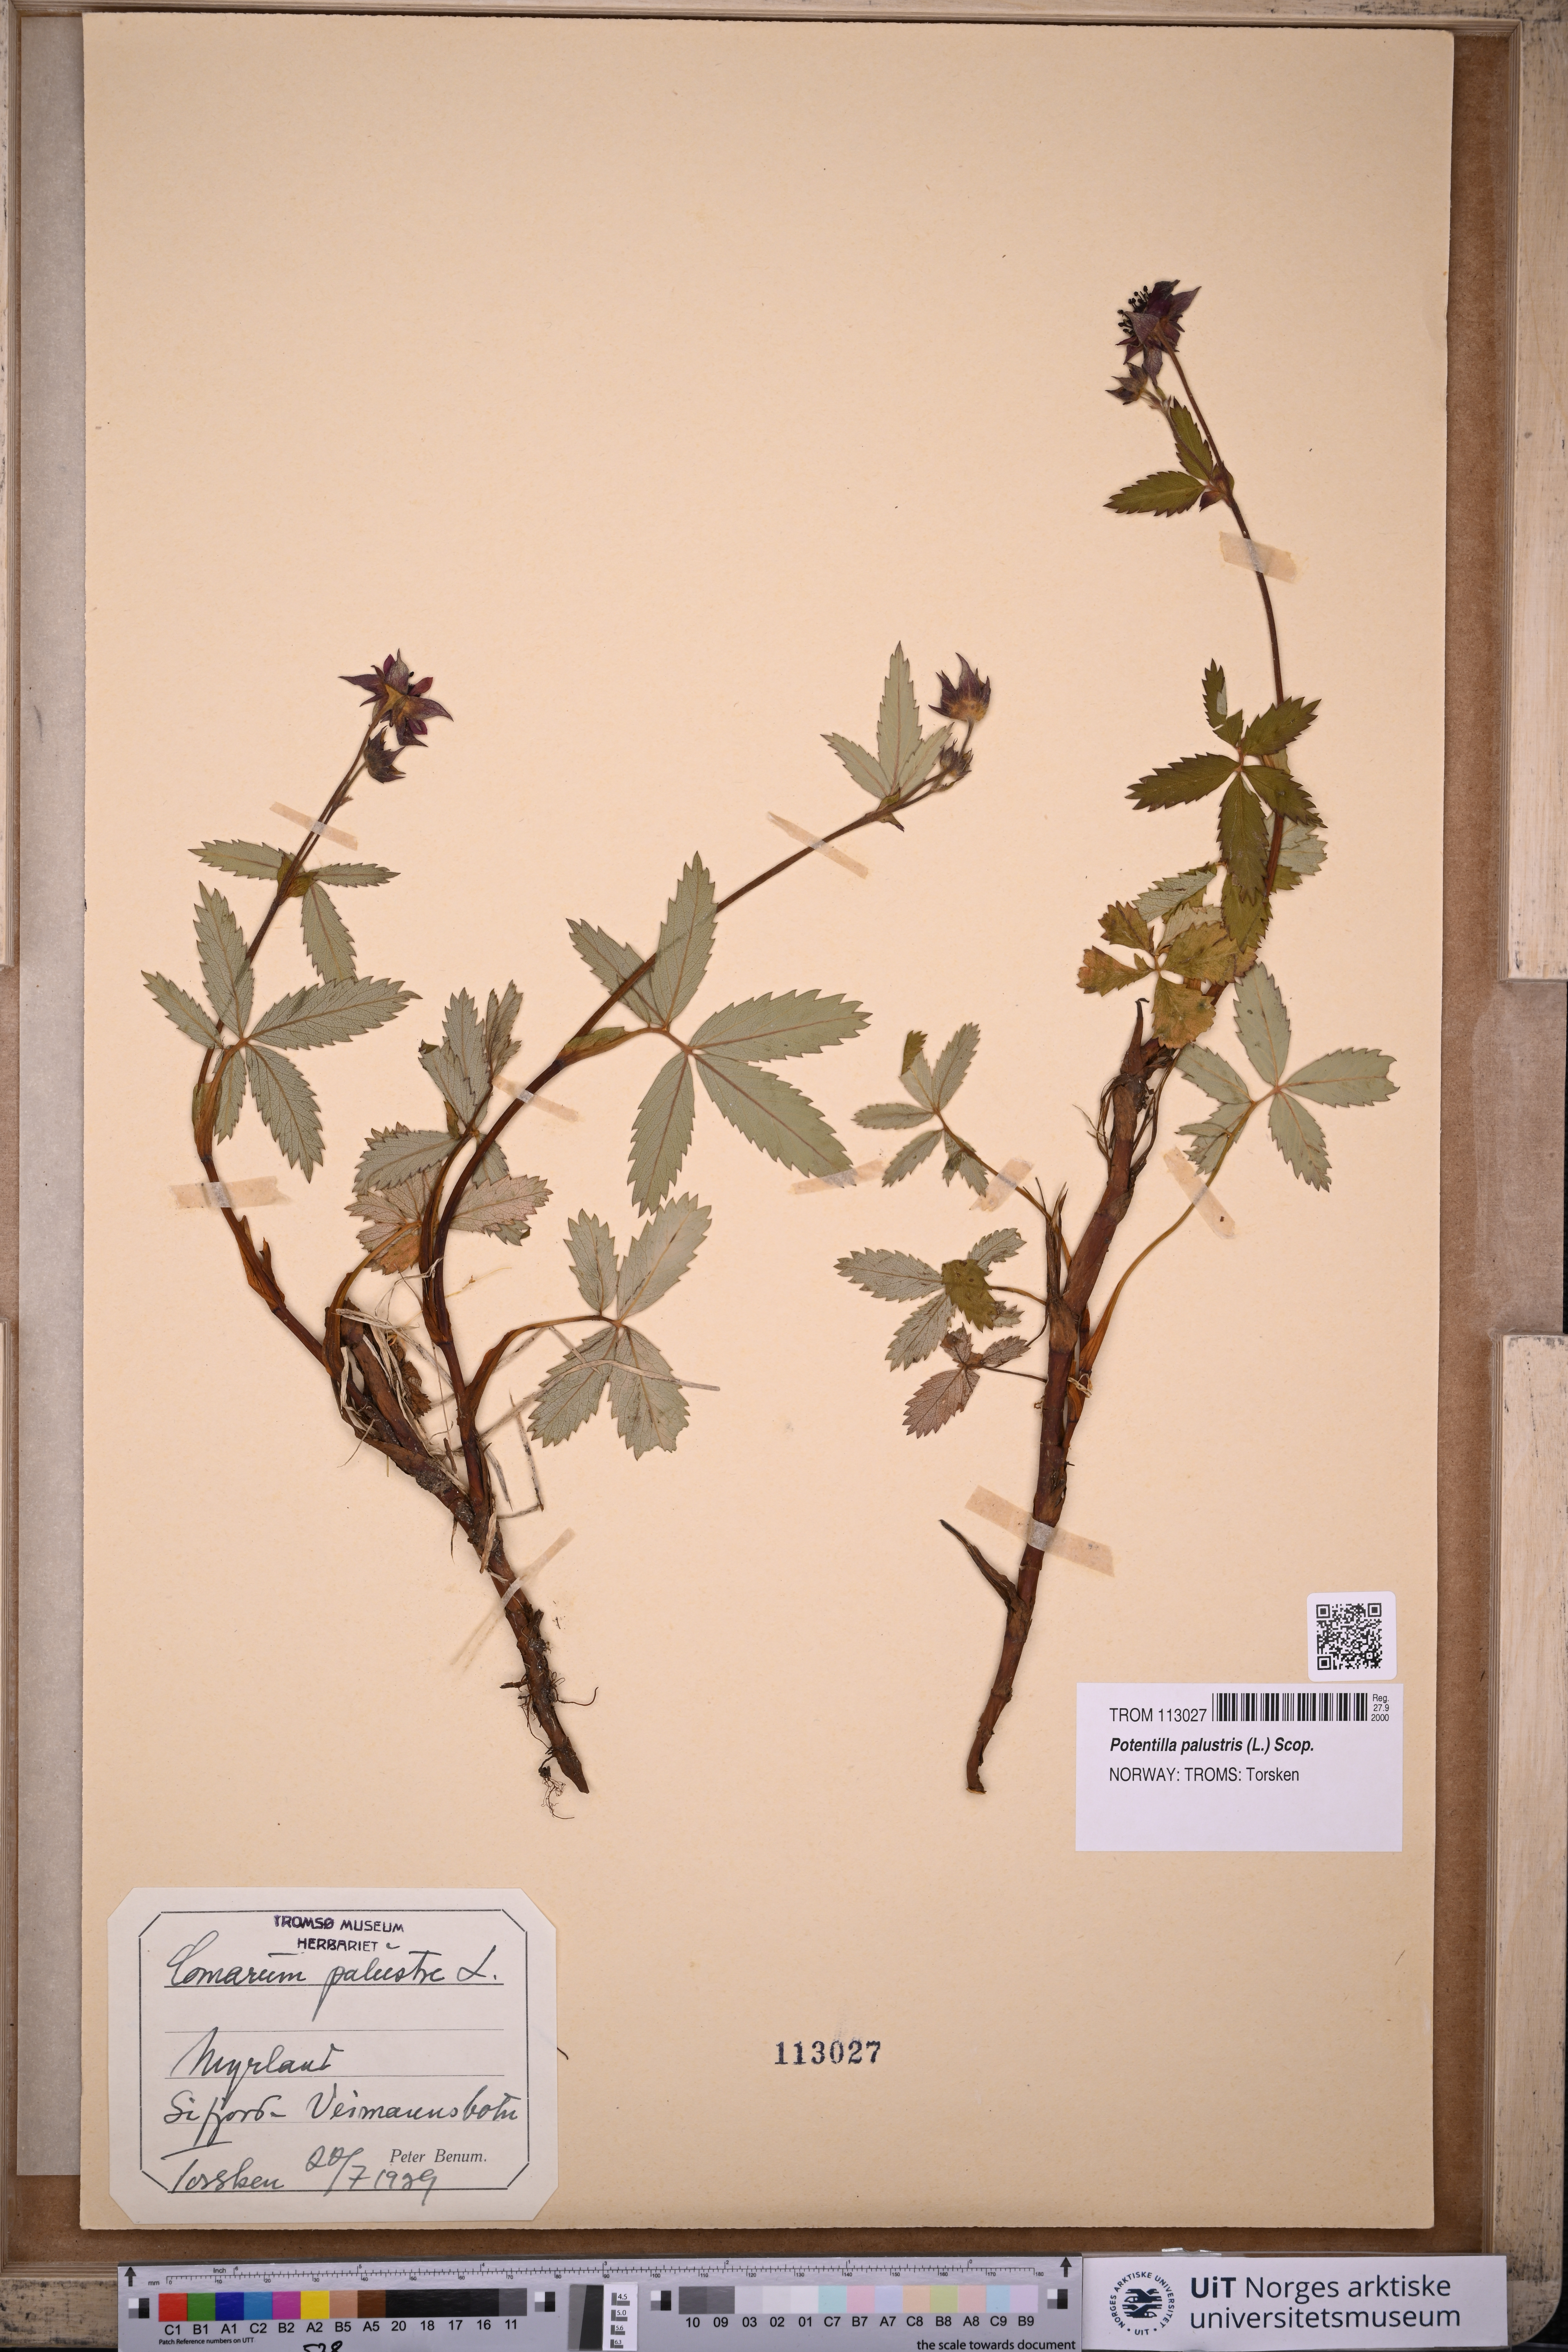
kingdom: Plantae
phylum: Tracheophyta
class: Magnoliopsida
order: Rosales
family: Rosaceae
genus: Comarum
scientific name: Comarum palustre
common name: Marsh cinquefoil
